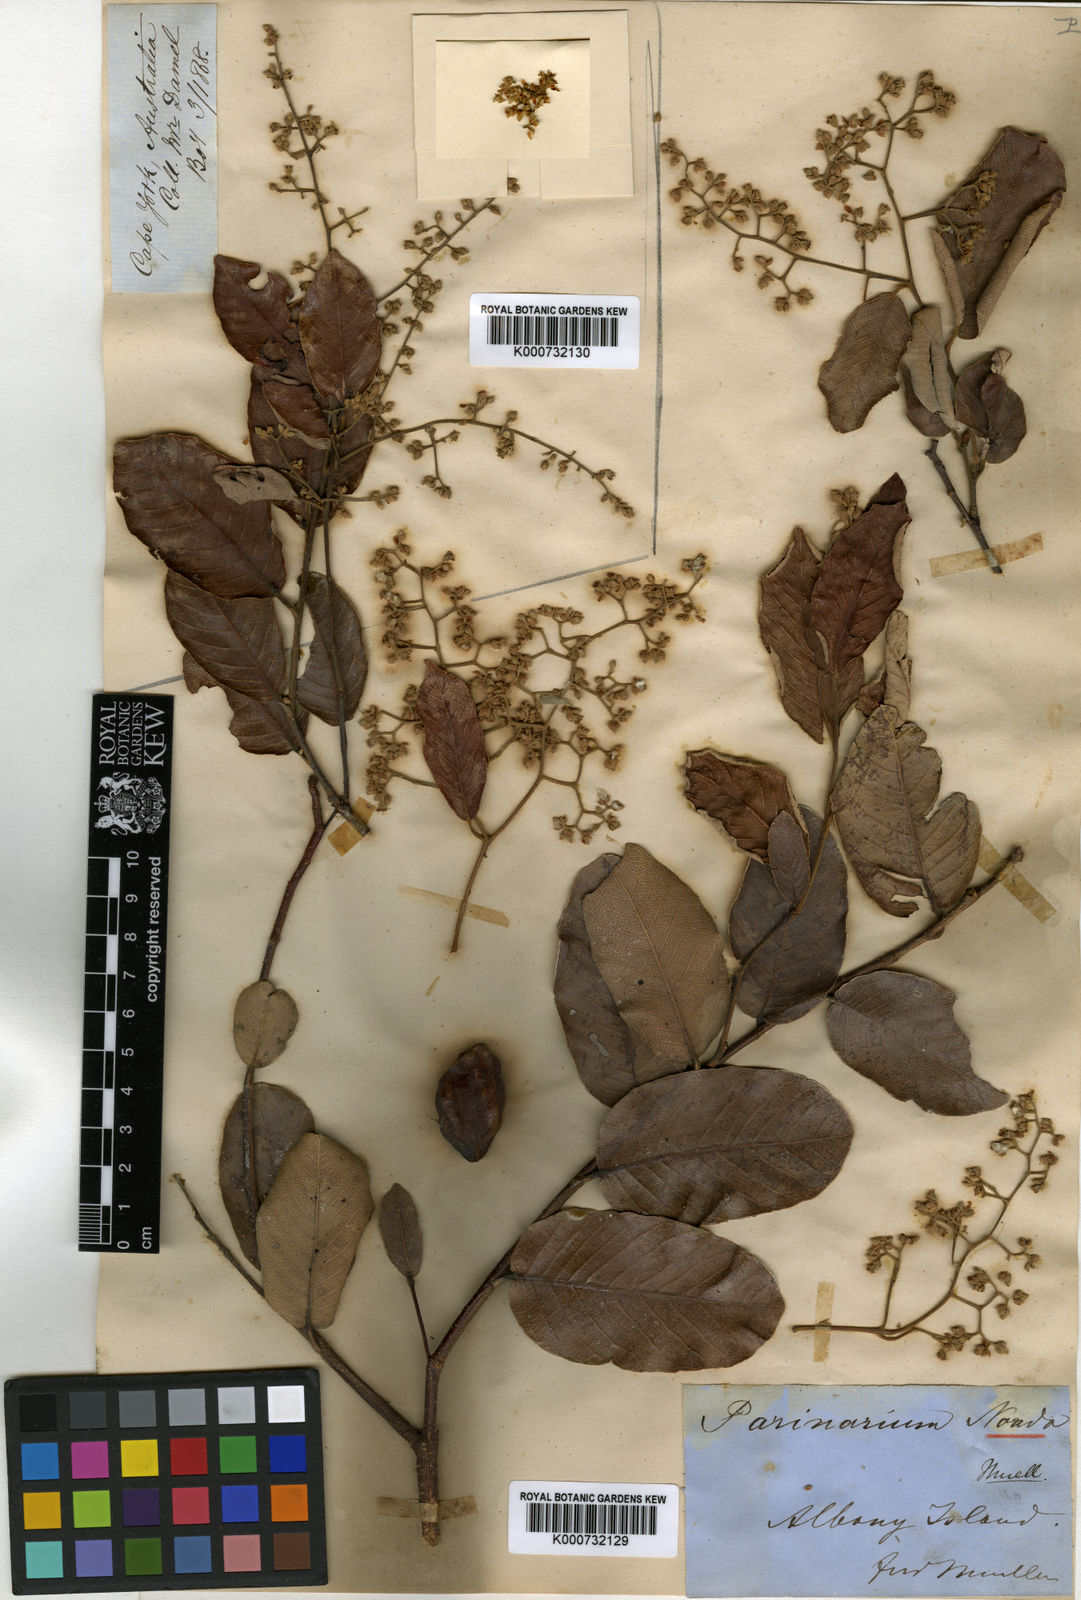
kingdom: Plantae
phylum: Tracheophyta
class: Magnoliopsida
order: Malpighiales
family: Chrysobalanaceae
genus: Parinari
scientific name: Parinari nonda
